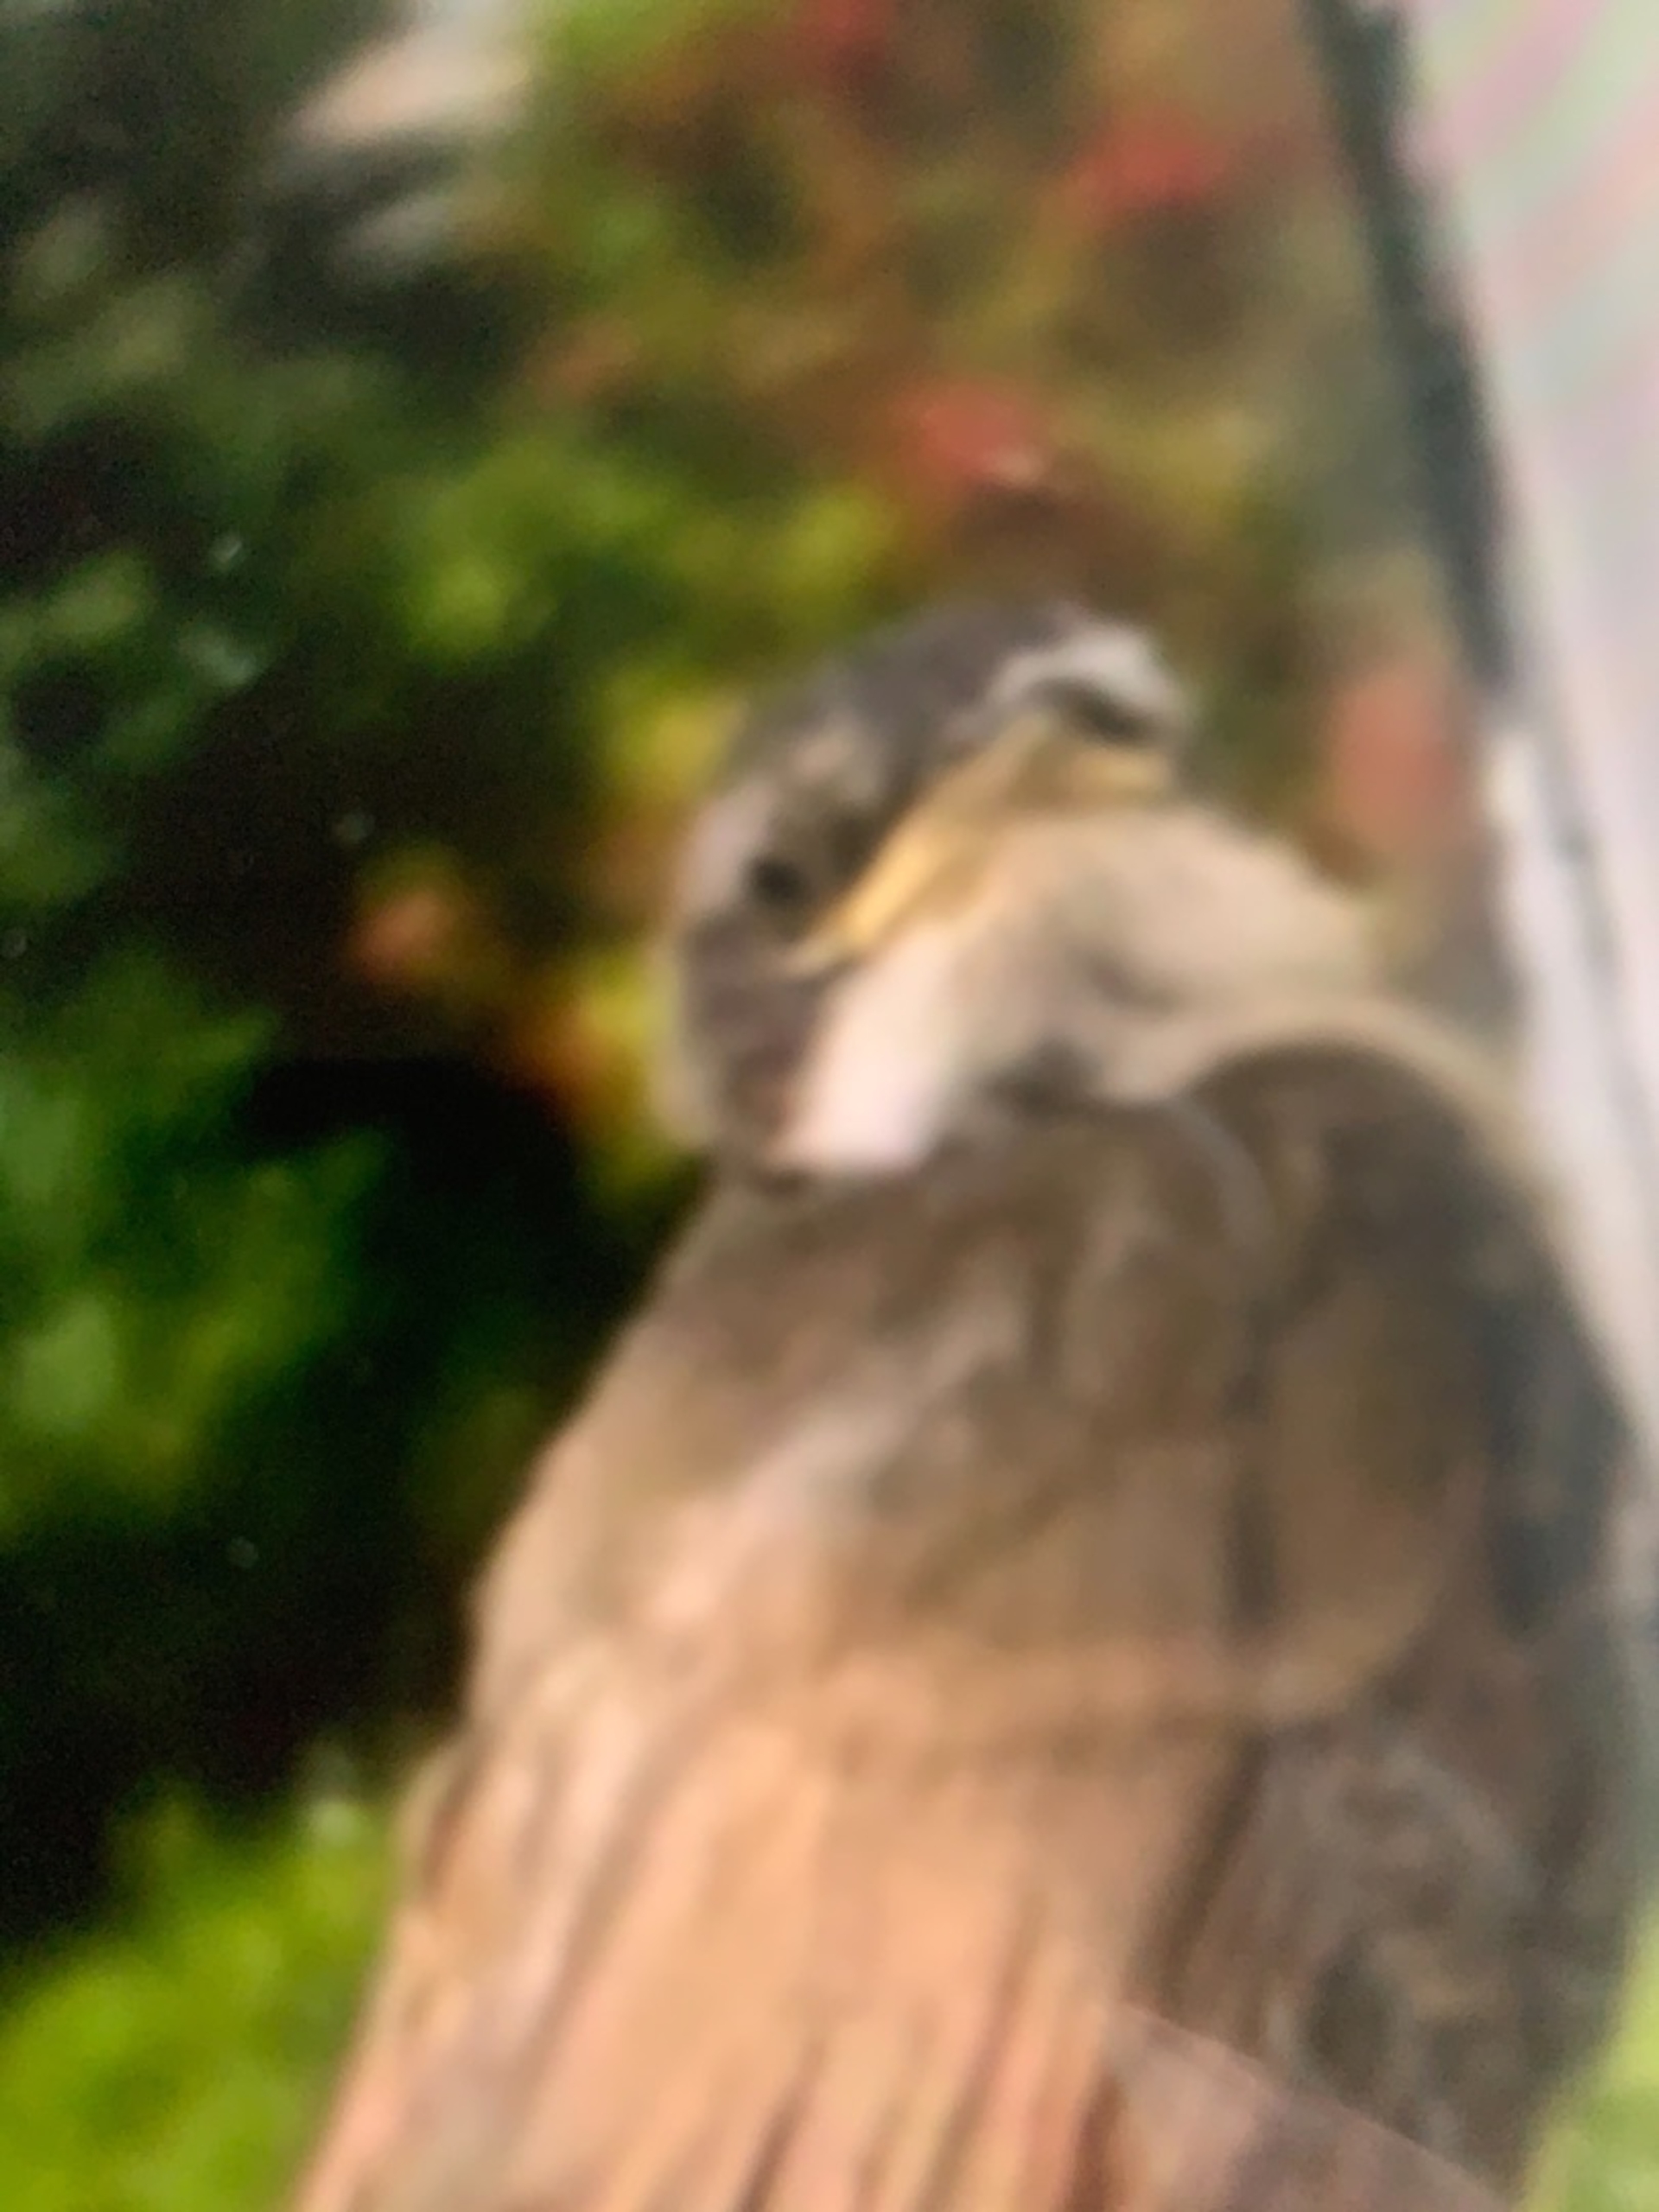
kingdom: Animalia
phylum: Chordata
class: Aves
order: Passeriformes
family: Sylviidae
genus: Sylvia
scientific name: Sylvia curruca
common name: Gærdesanger
